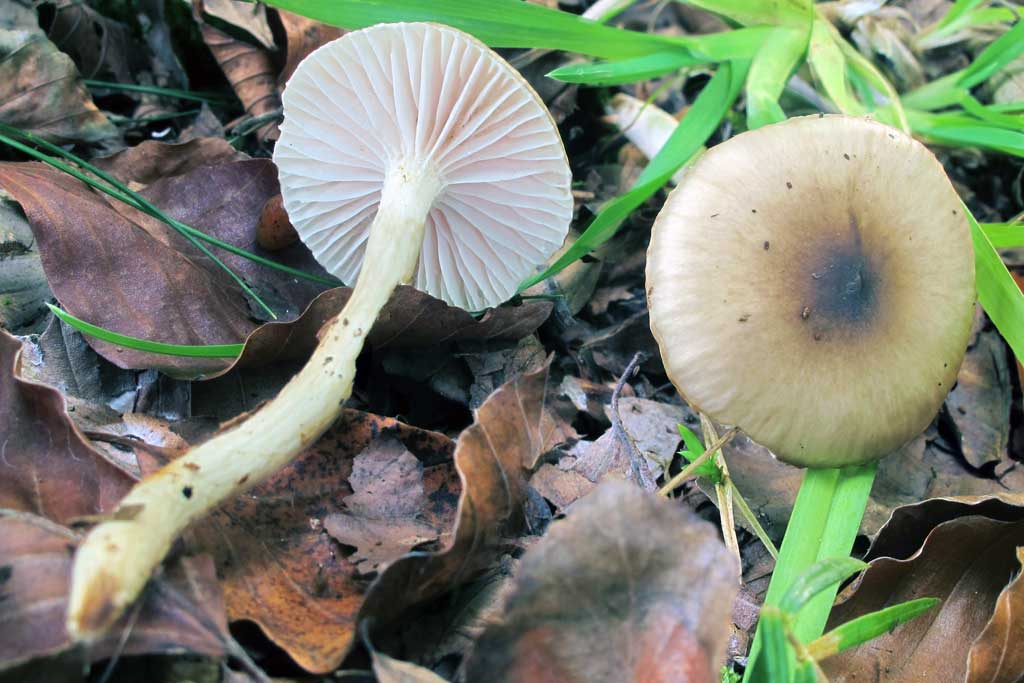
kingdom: Fungi
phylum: Basidiomycota
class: Agaricomycetes
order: Agaricales
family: Hygrophoraceae
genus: Hygrophorus
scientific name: Hygrophorus mesotephrus
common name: askegrå sneglehat
